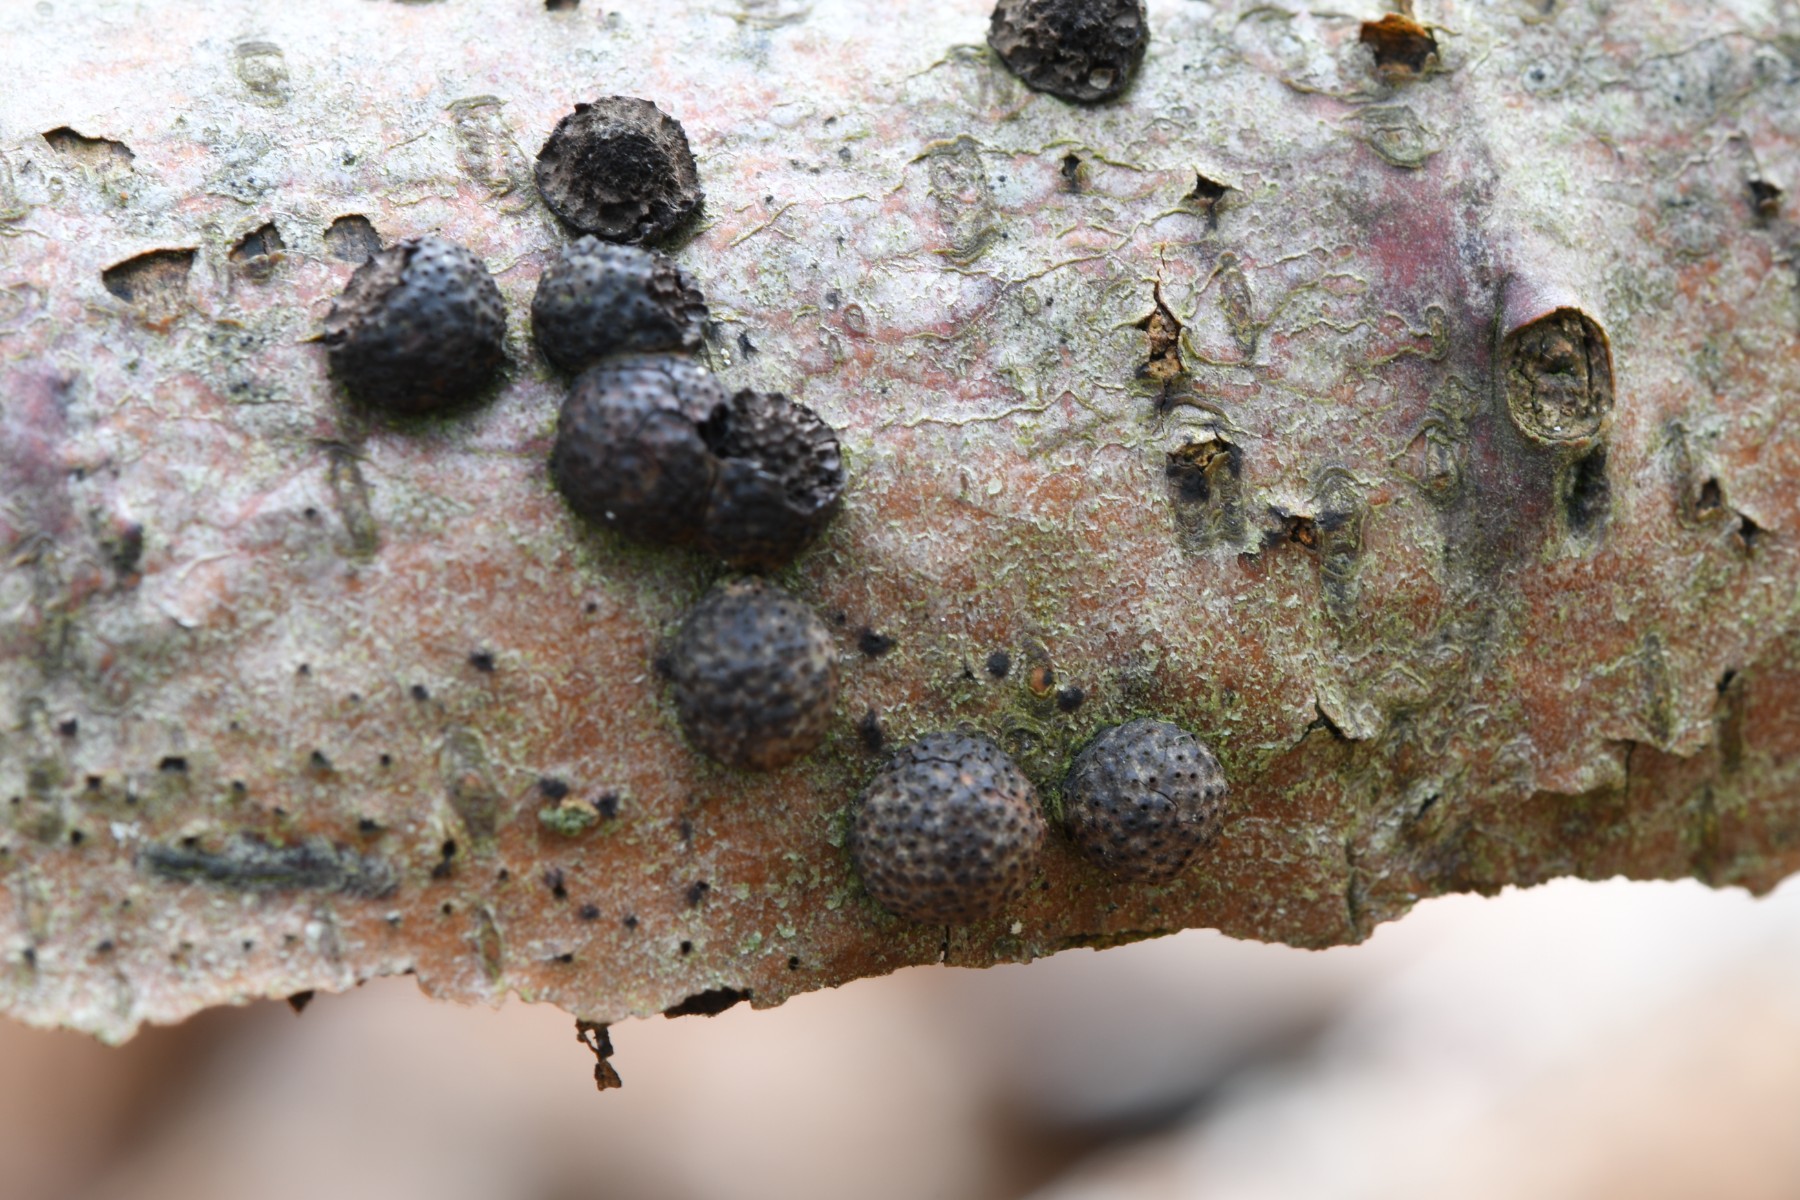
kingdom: Fungi
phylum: Ascomycota
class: Sordariomycetes
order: Xylariales
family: Hypoxylaceae
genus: Hypoxylon
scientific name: Hypoxylon fragiforme
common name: kuljordbær
